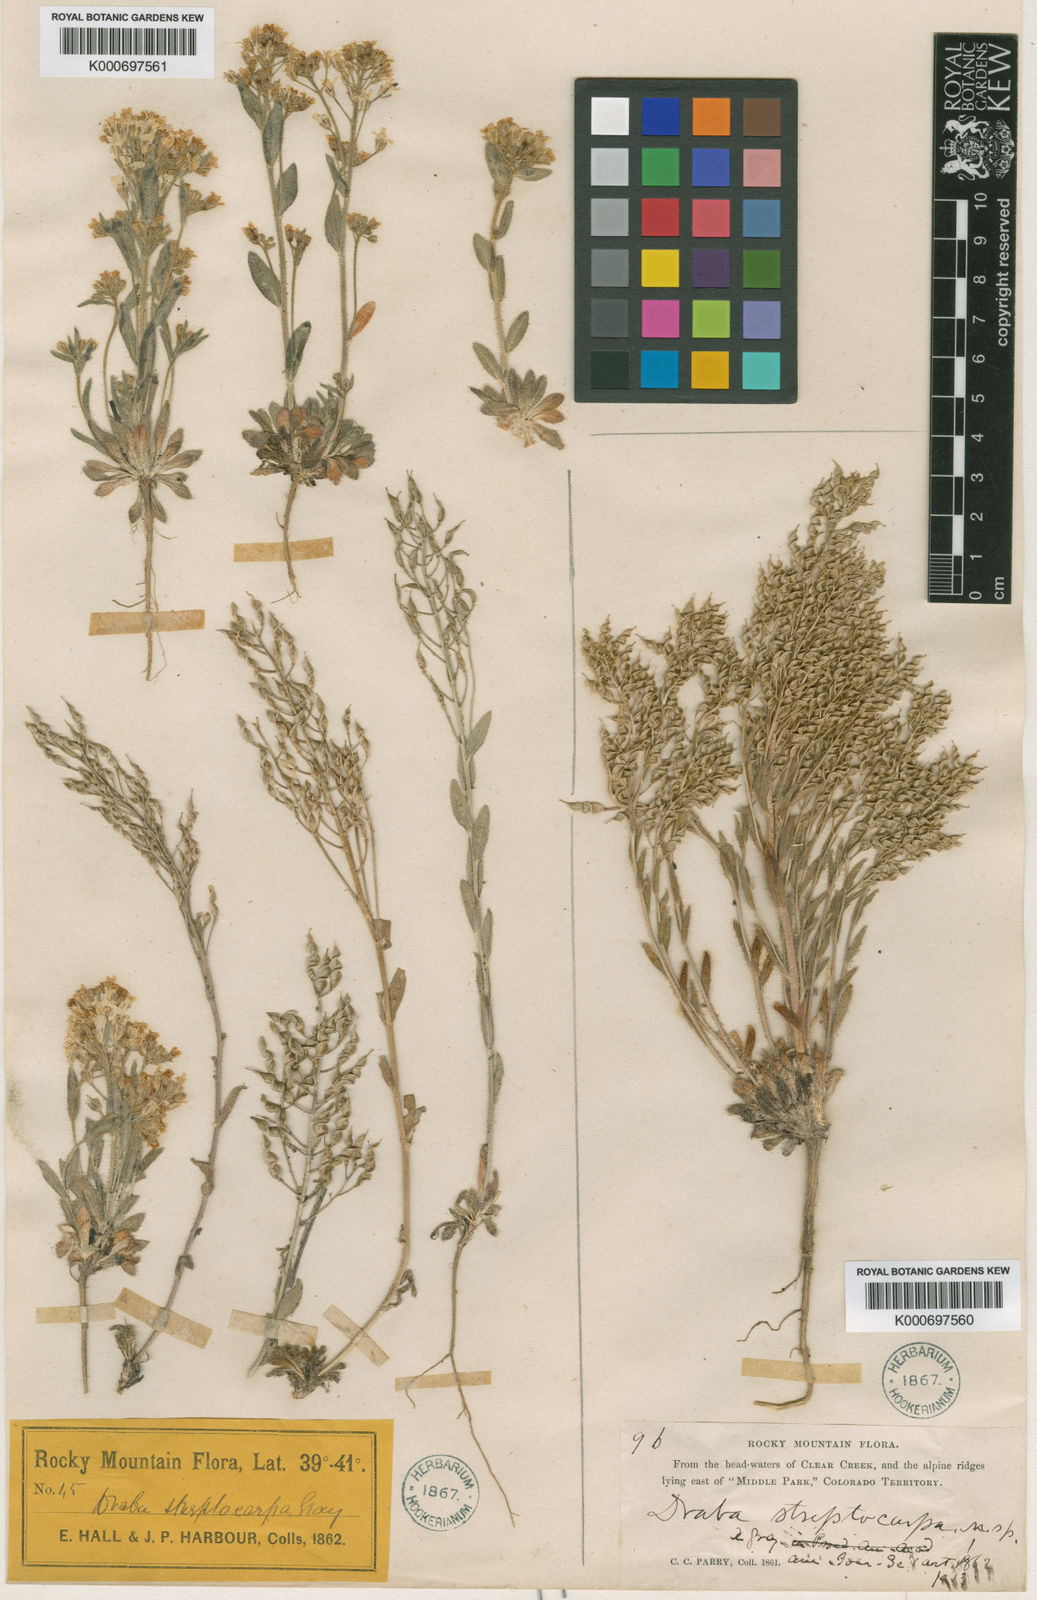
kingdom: Plantae
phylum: Tracheophyta
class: Magnoliopsida
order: Brassicales
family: Brassicaceae
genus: Draba
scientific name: Draba streptocarpa
